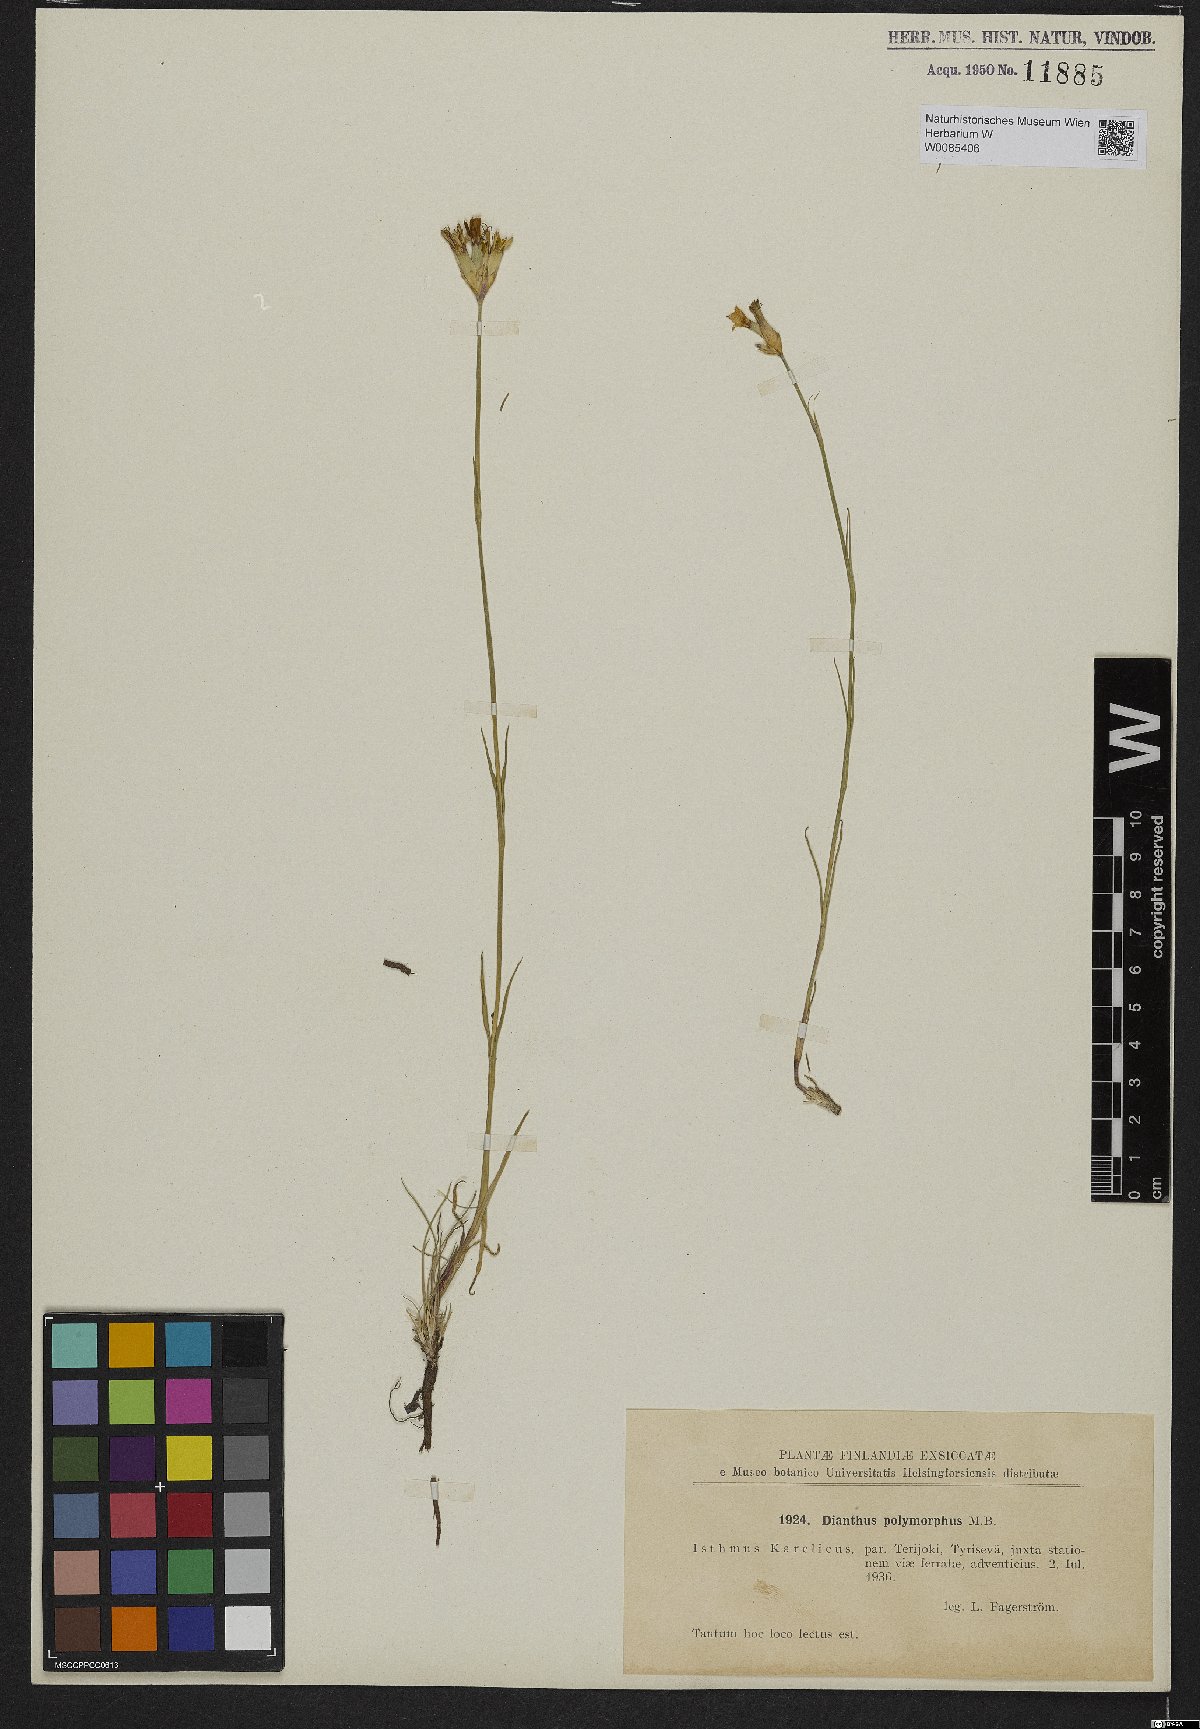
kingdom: Plantae
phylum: Tracheophyta
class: Magnoliopsida
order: Caryophyllales
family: Caryophyllaceae
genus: Dianthus
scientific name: Dianthus polymorphus
